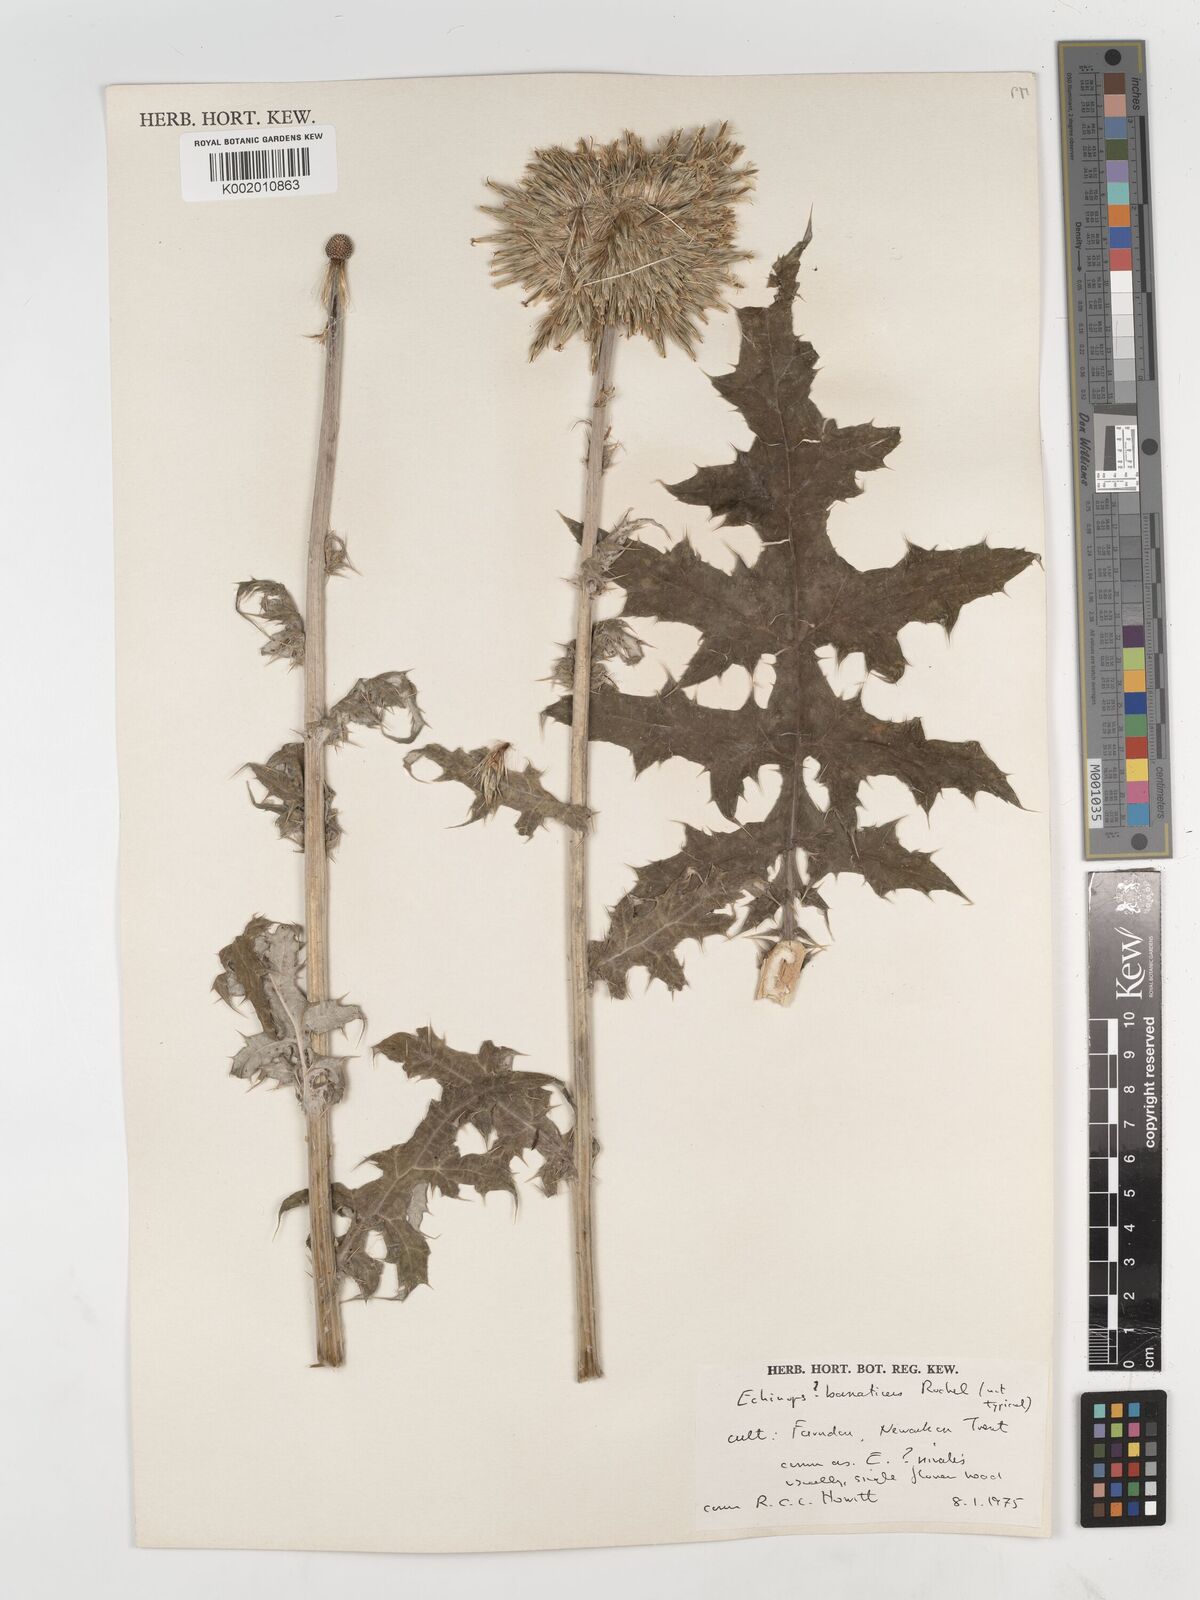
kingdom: Plantae
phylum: Tracheophyta
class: Magnoliopsida
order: Asterales
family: Asteraceae
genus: Echinops
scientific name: Echinops bannaticus
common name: Blue globe-thistle
